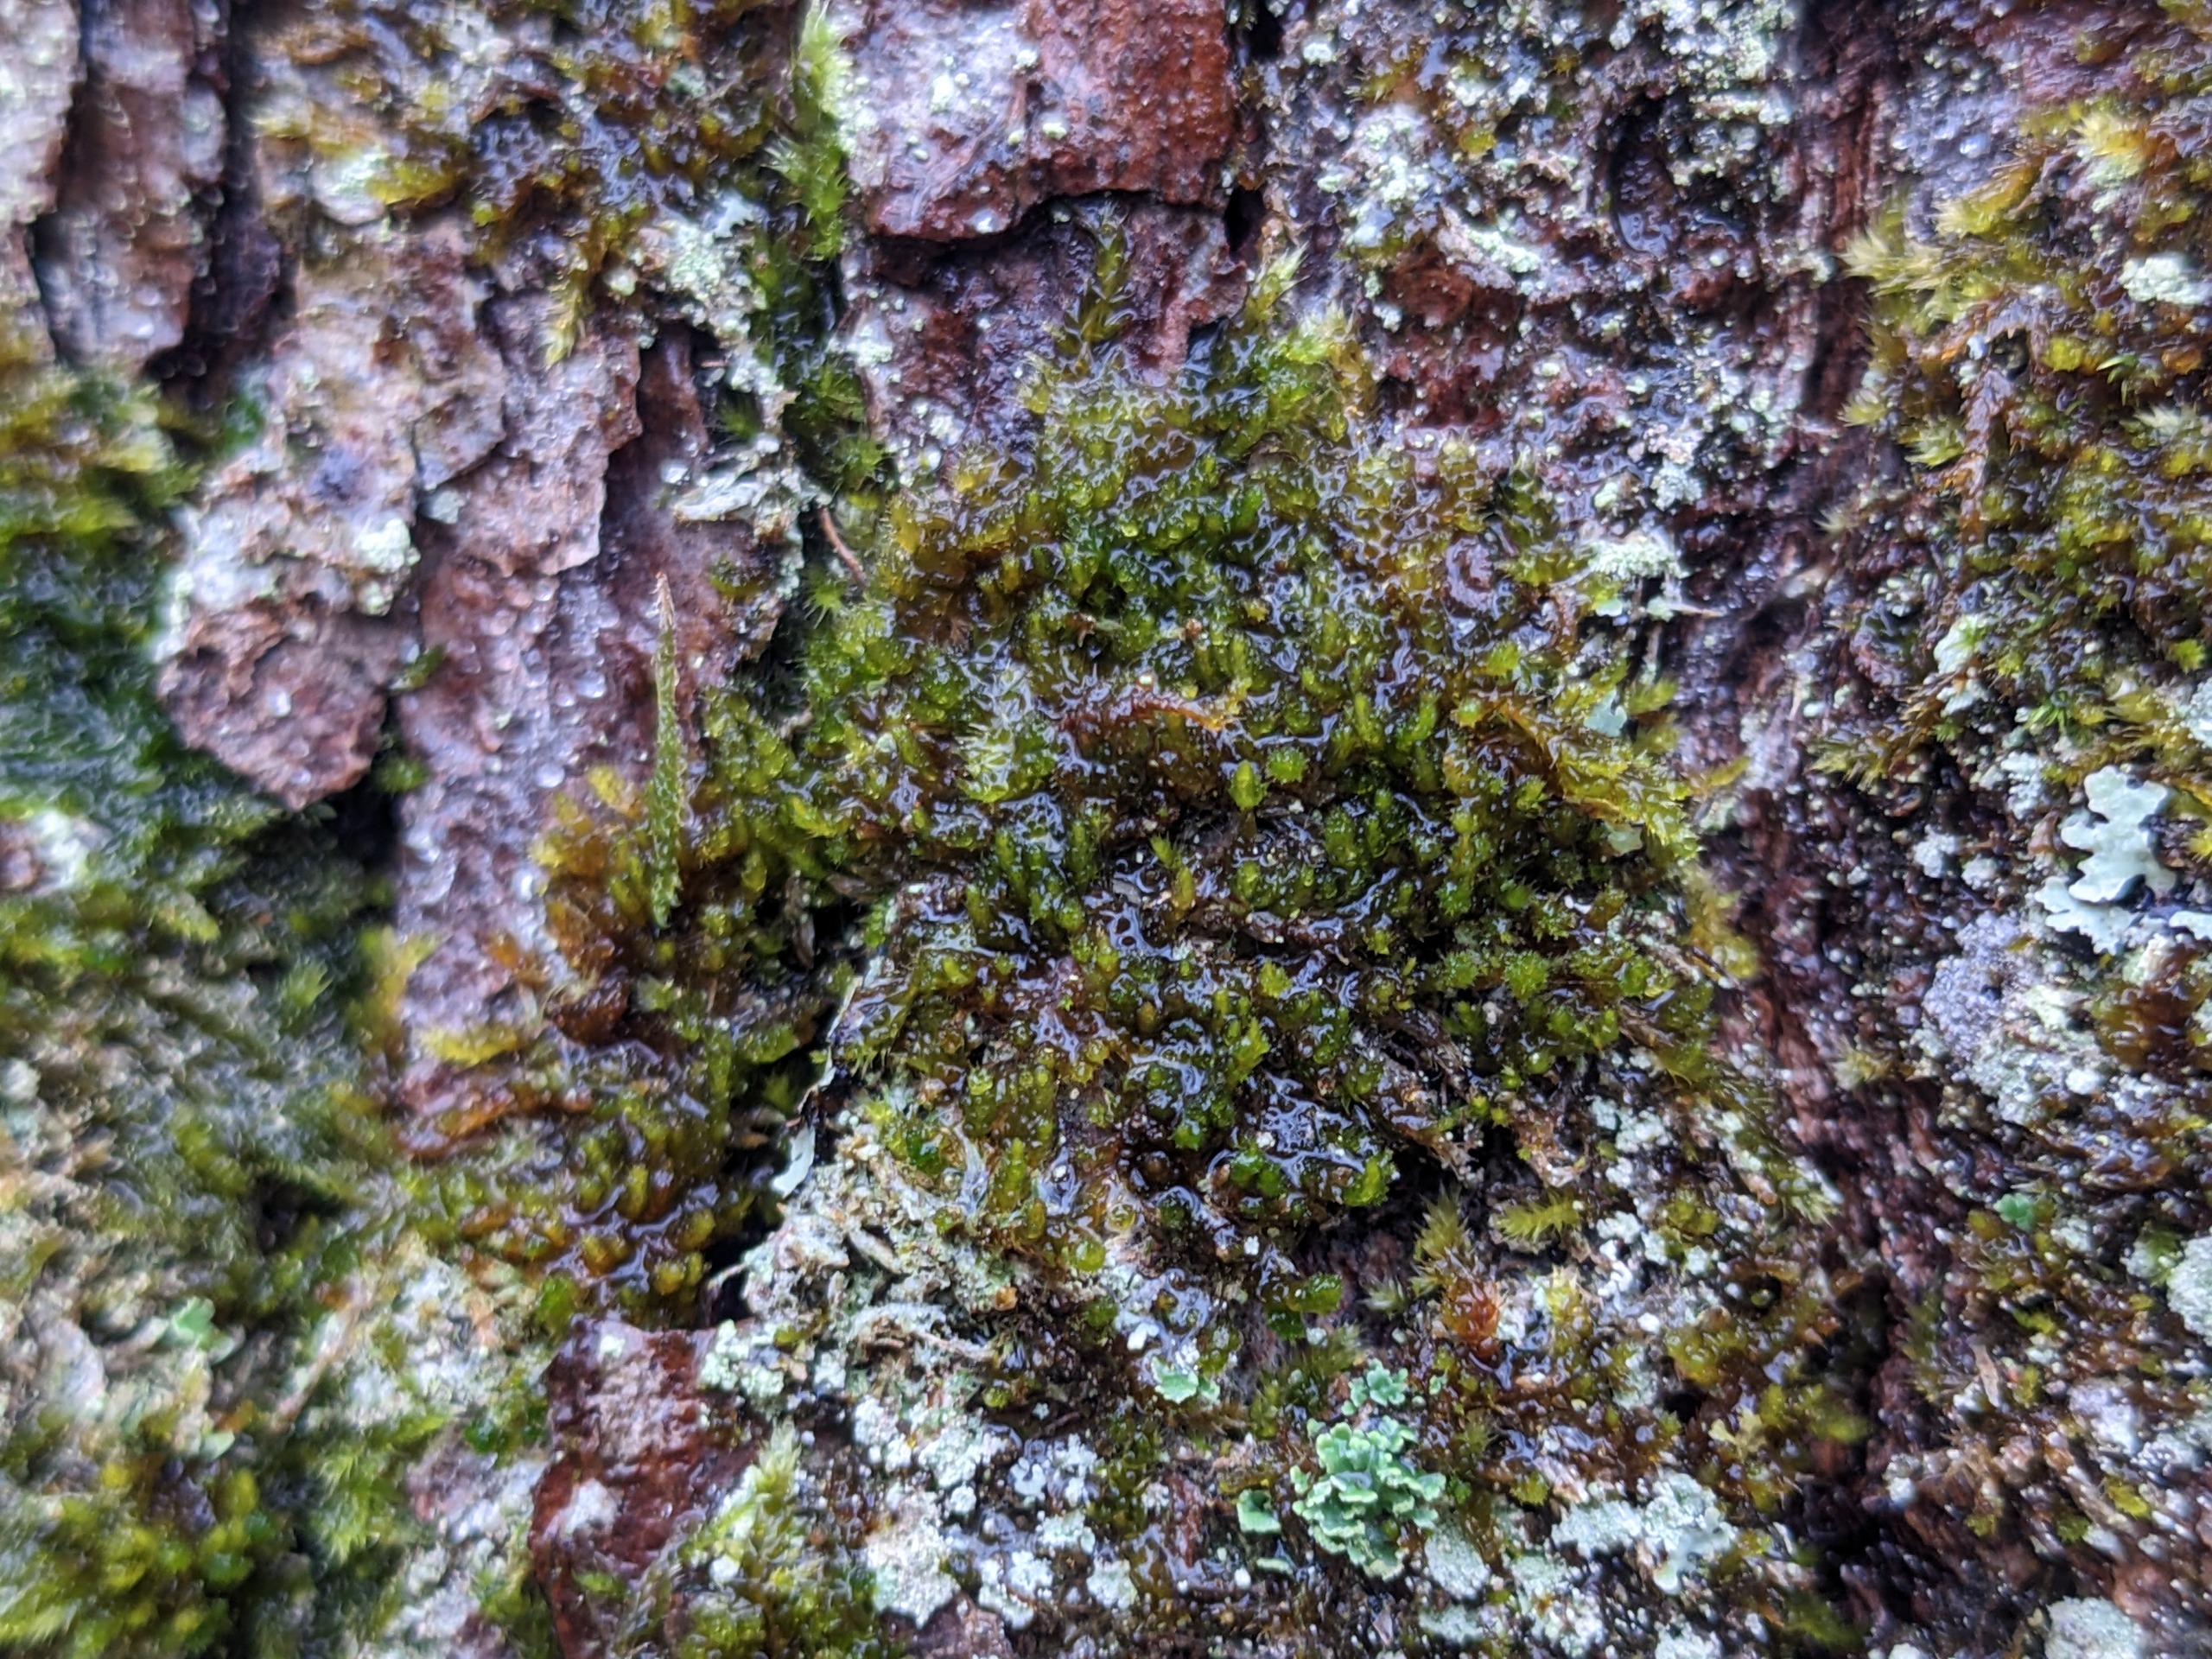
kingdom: Plantae
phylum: Bryophyta
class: Bryopsida
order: Hypnales
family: Pylaisiadelphaceae
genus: Platygyrium
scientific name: Platygyrium repens
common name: Mørk yngleknop
